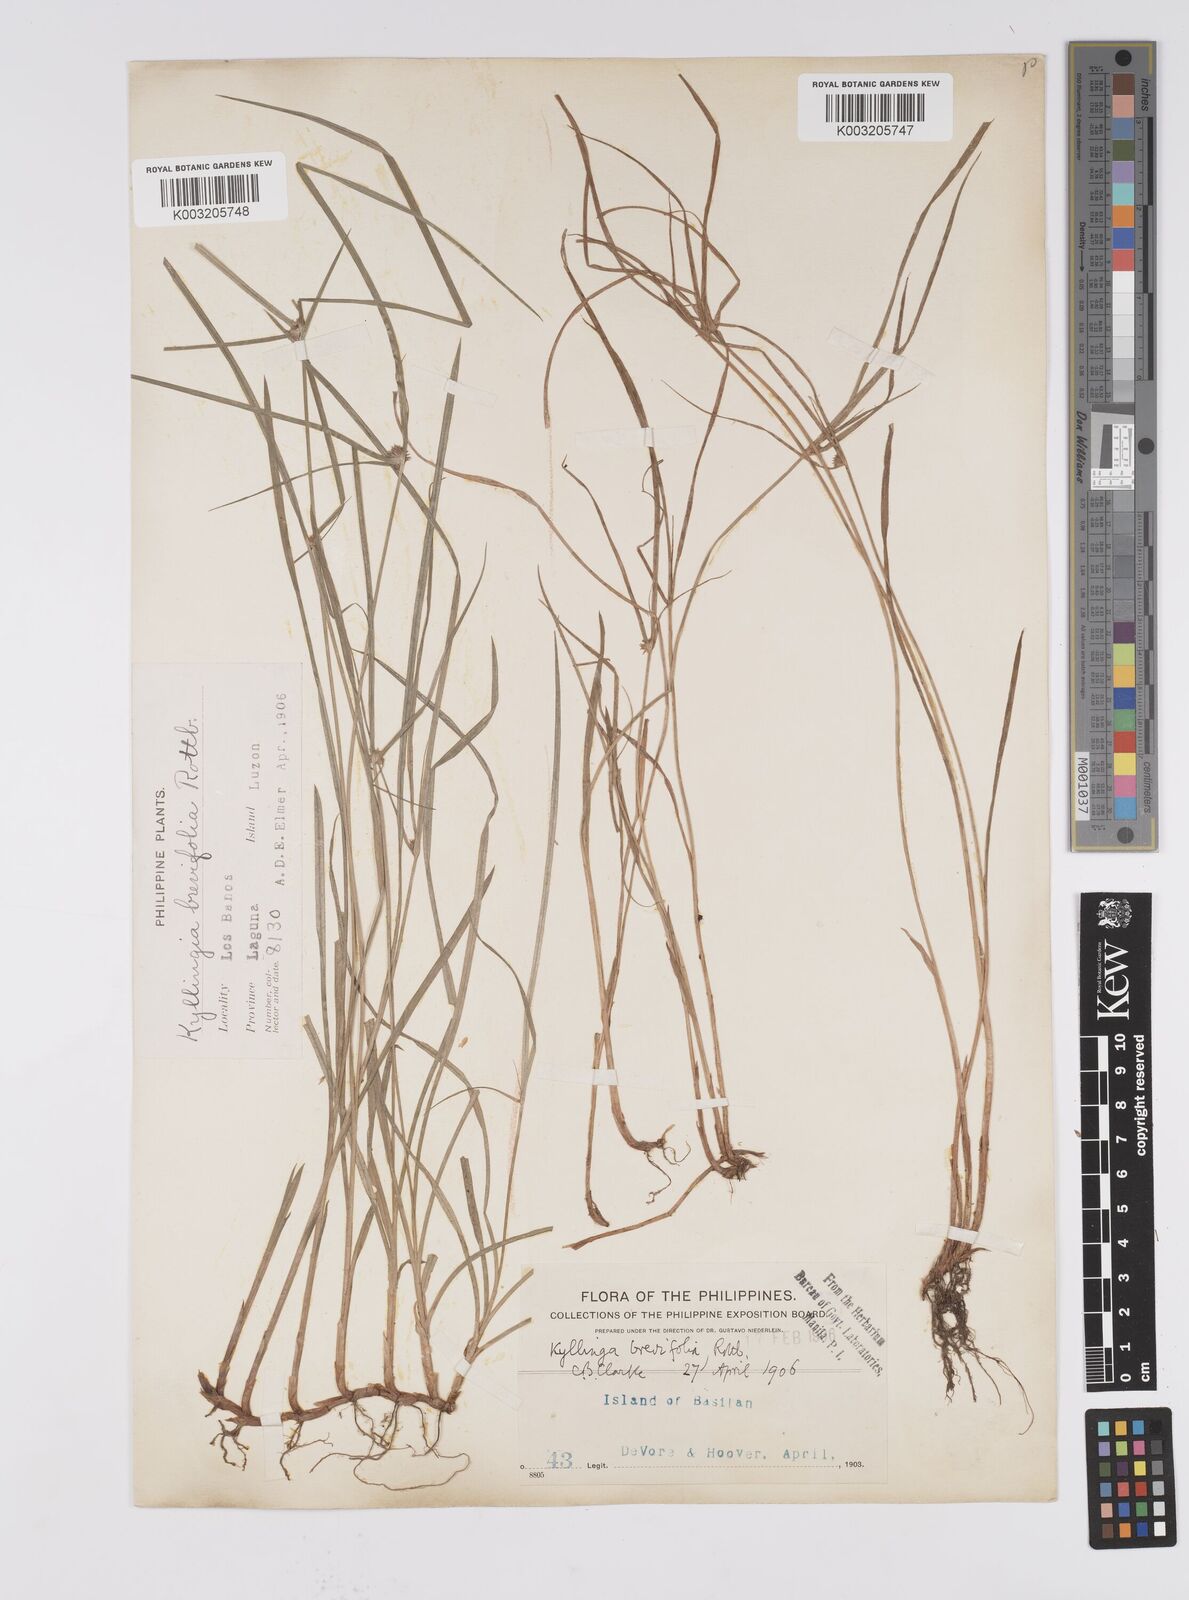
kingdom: Plantae
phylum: Tracheophyta
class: Liliopsida
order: Poales
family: Cyperaceae
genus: Cyperus
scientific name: Cyperus brevifolius
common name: Globe kyllinga
